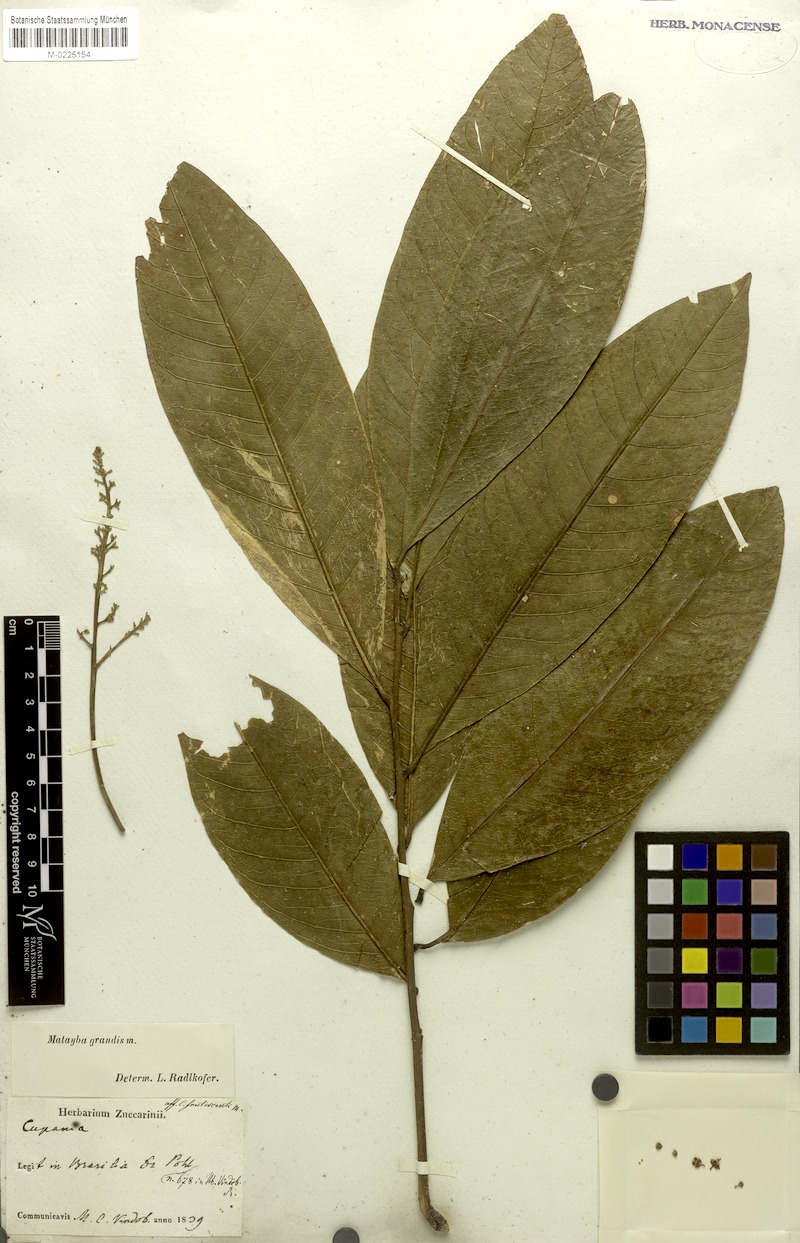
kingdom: Plantae
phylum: Tracheophyta
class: Magnoliopsida
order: Sapindales
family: Sapindaceae
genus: Matayba
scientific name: Matayba grandis
